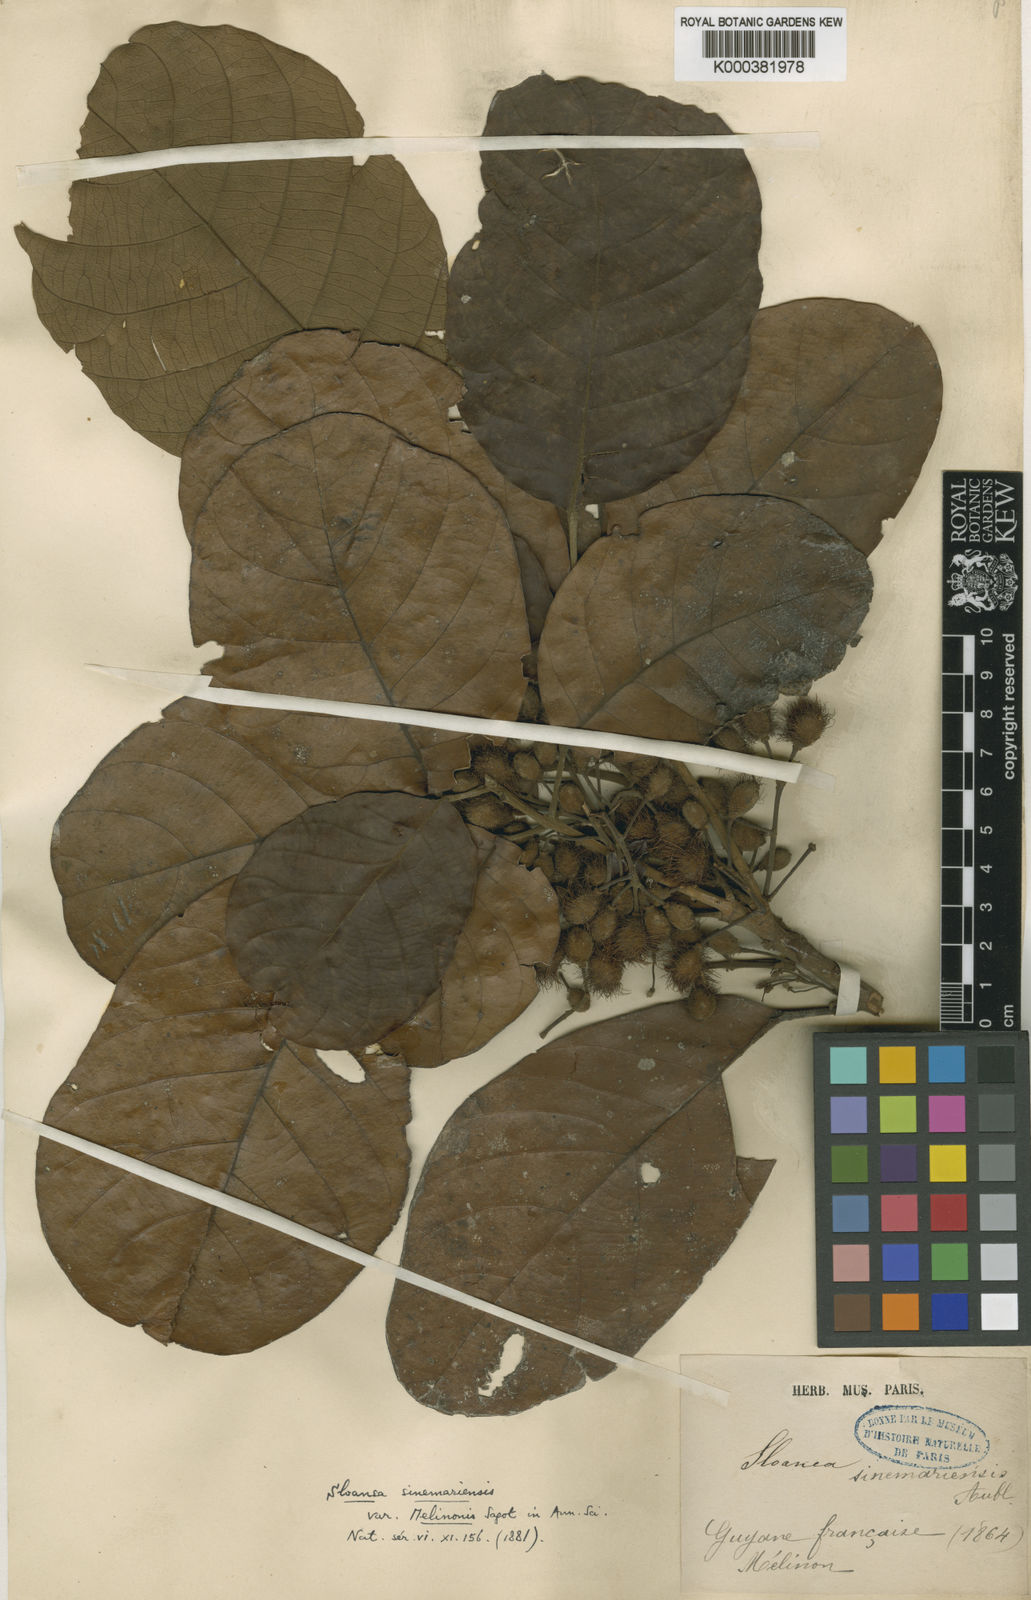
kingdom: Plantae
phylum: Tracheophyta
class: Magnoliopsida
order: Oxalidales
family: Elaeocarpaceae
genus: Sloanea
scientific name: Sloanea eichleri
